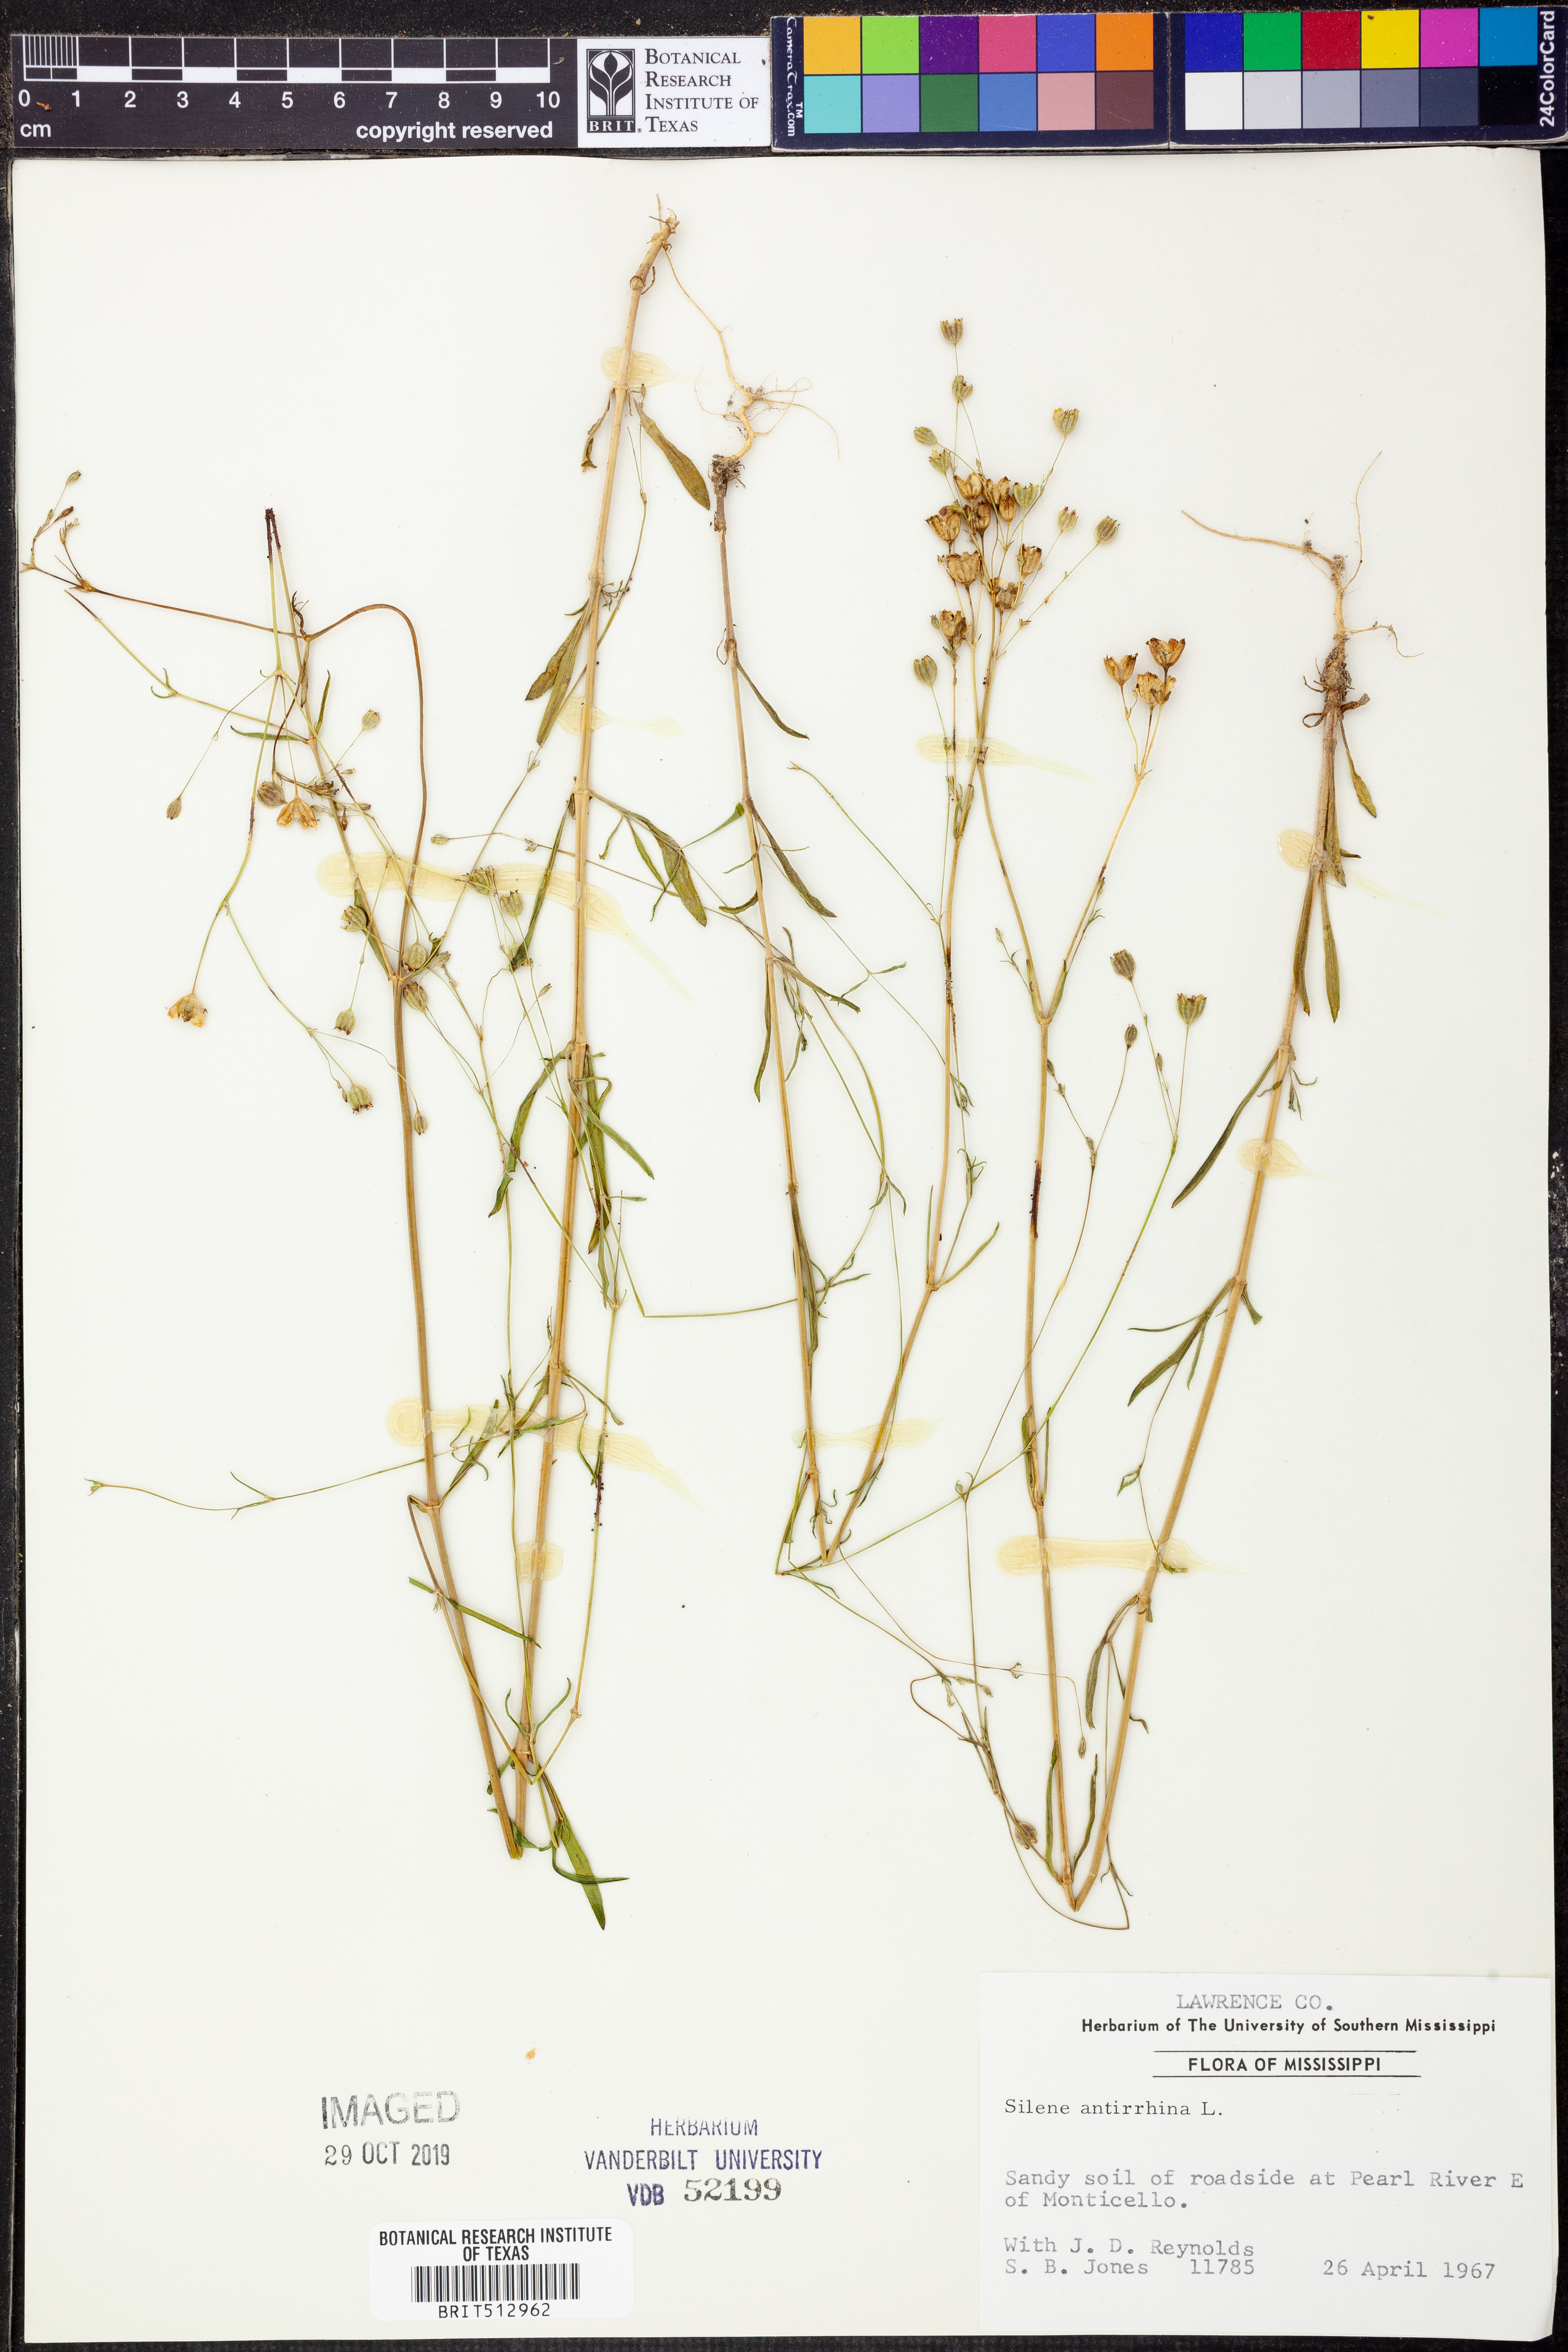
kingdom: Plantae
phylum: Tracheophyta
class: Magnoliopsida
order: Caryophyllales
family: Caryophyllaceae
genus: Silene
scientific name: Silene antirrhina
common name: Sleepy catchfly
